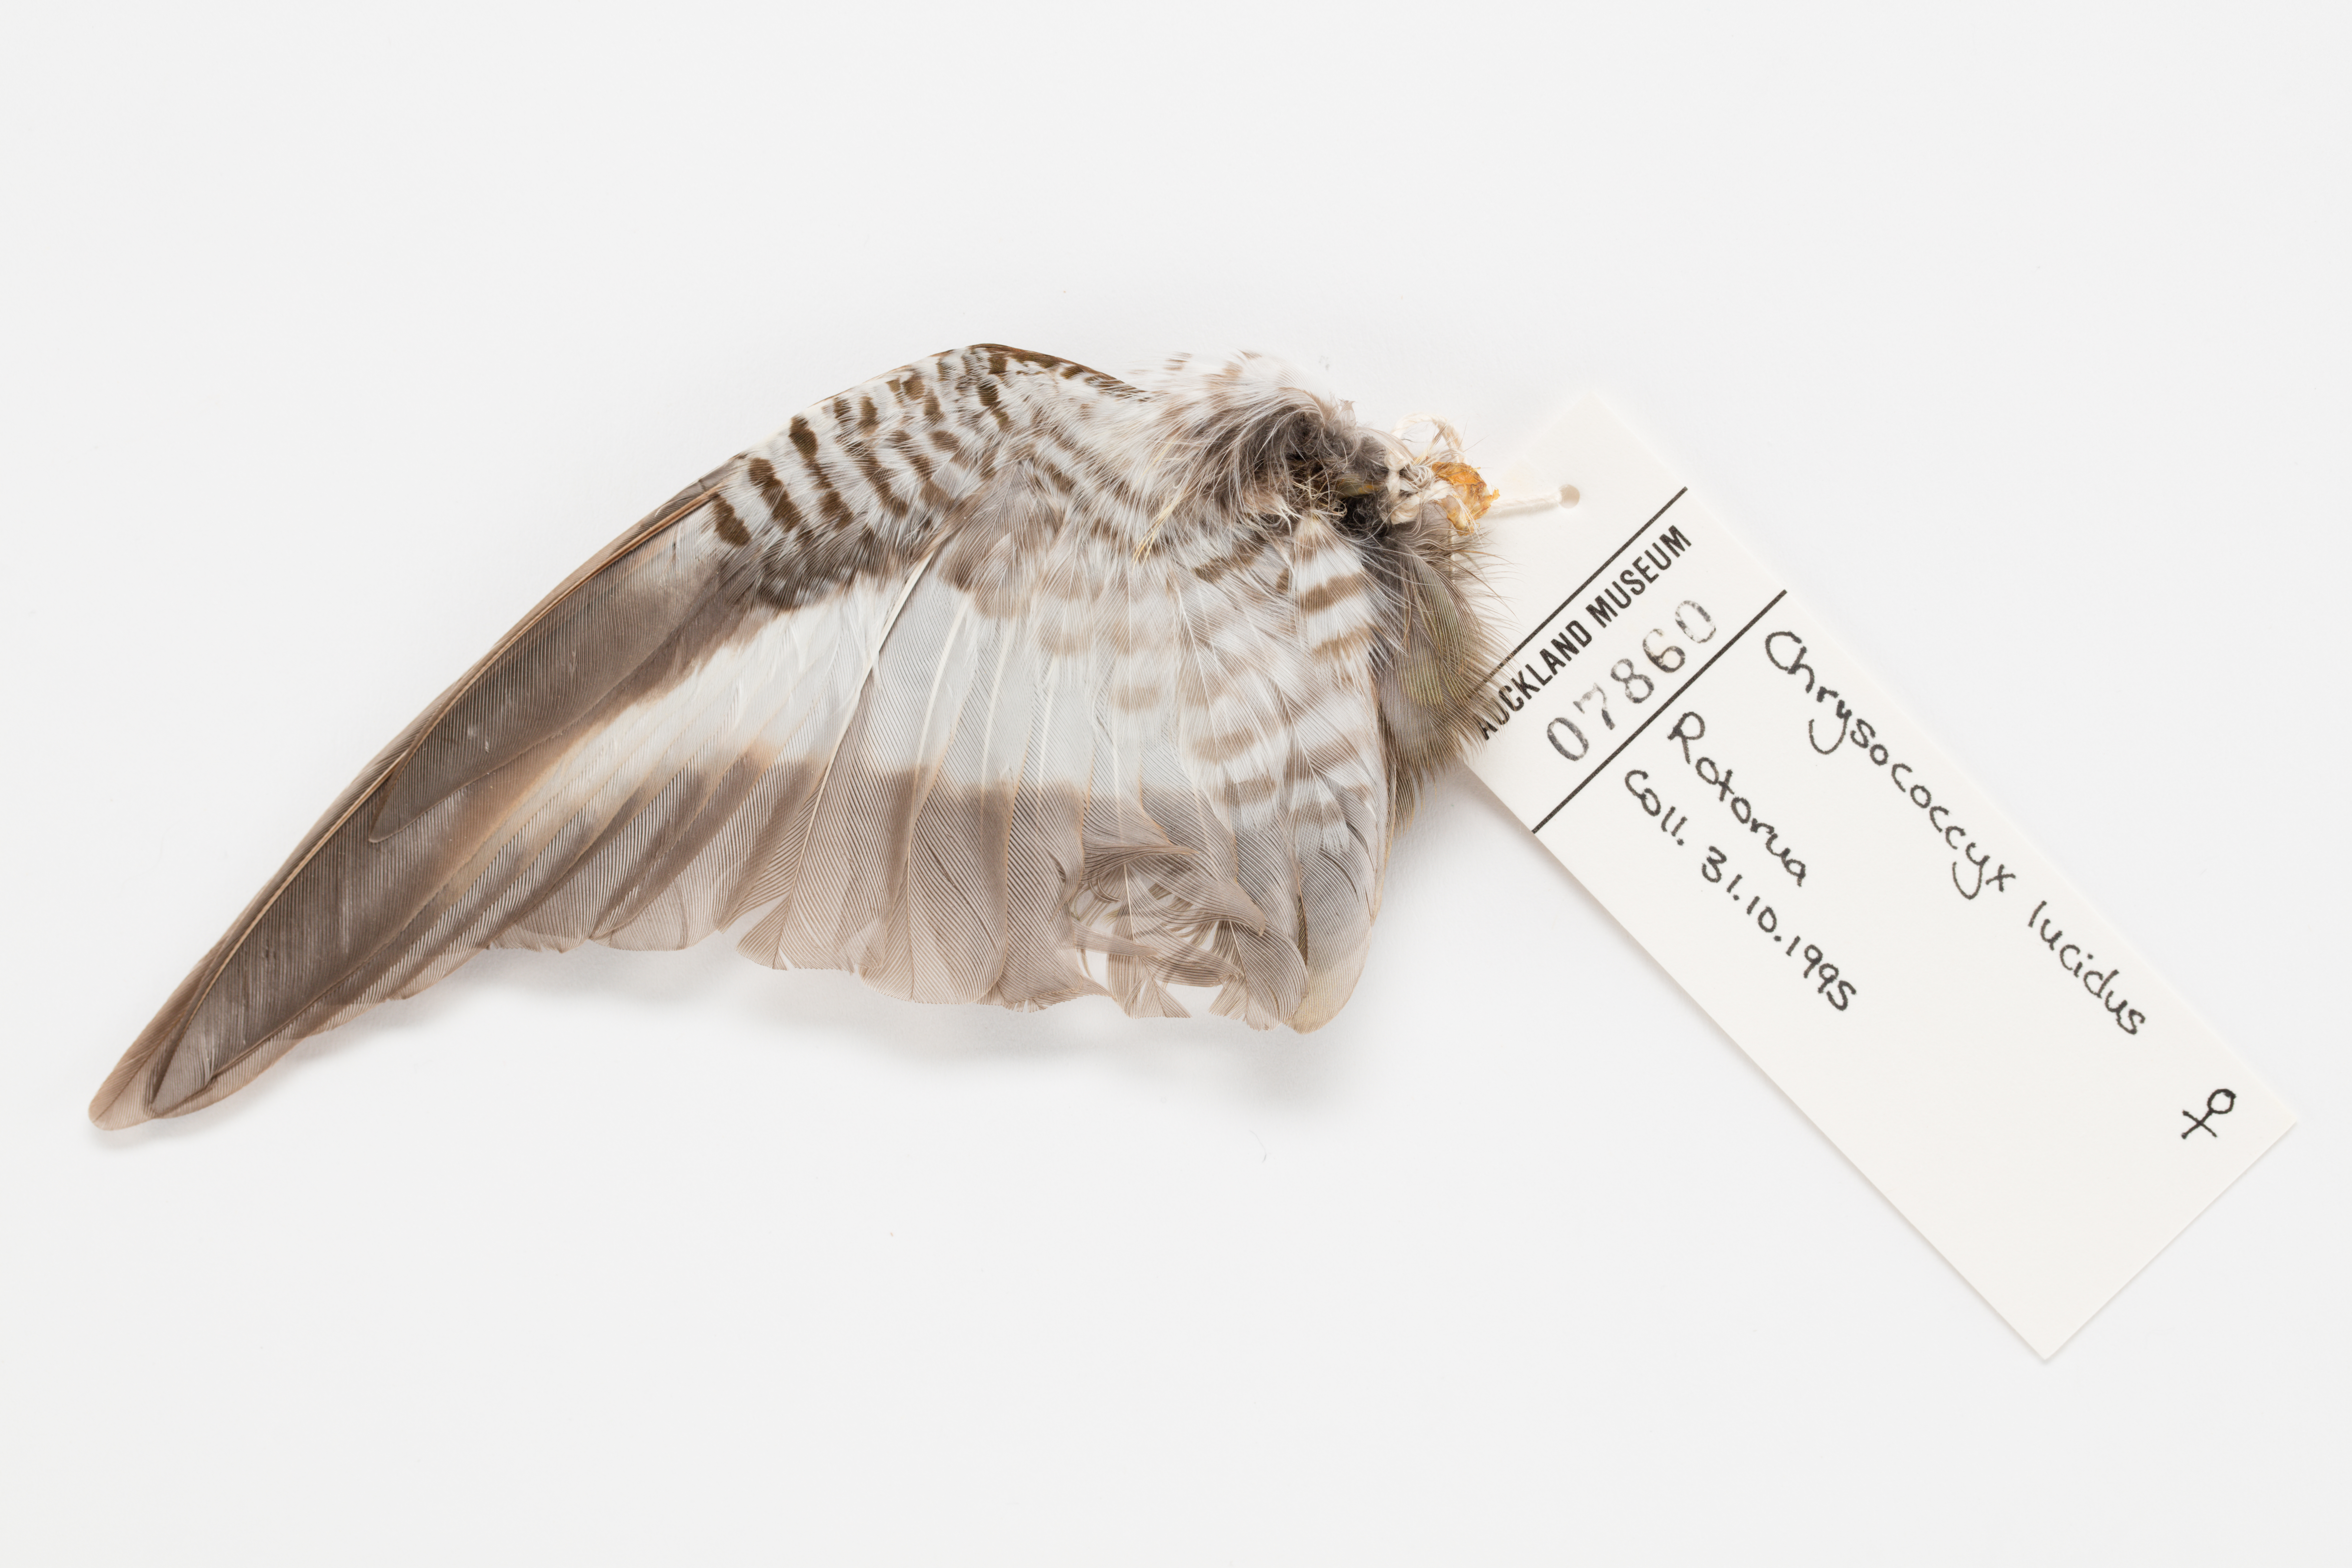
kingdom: Animalia
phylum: Chordata
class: Aves
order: Cuculiformes
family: Cuculidae
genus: Chrysococcyx
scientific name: Chrysococcyx lucidus
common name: Shining bronze cuckoo
